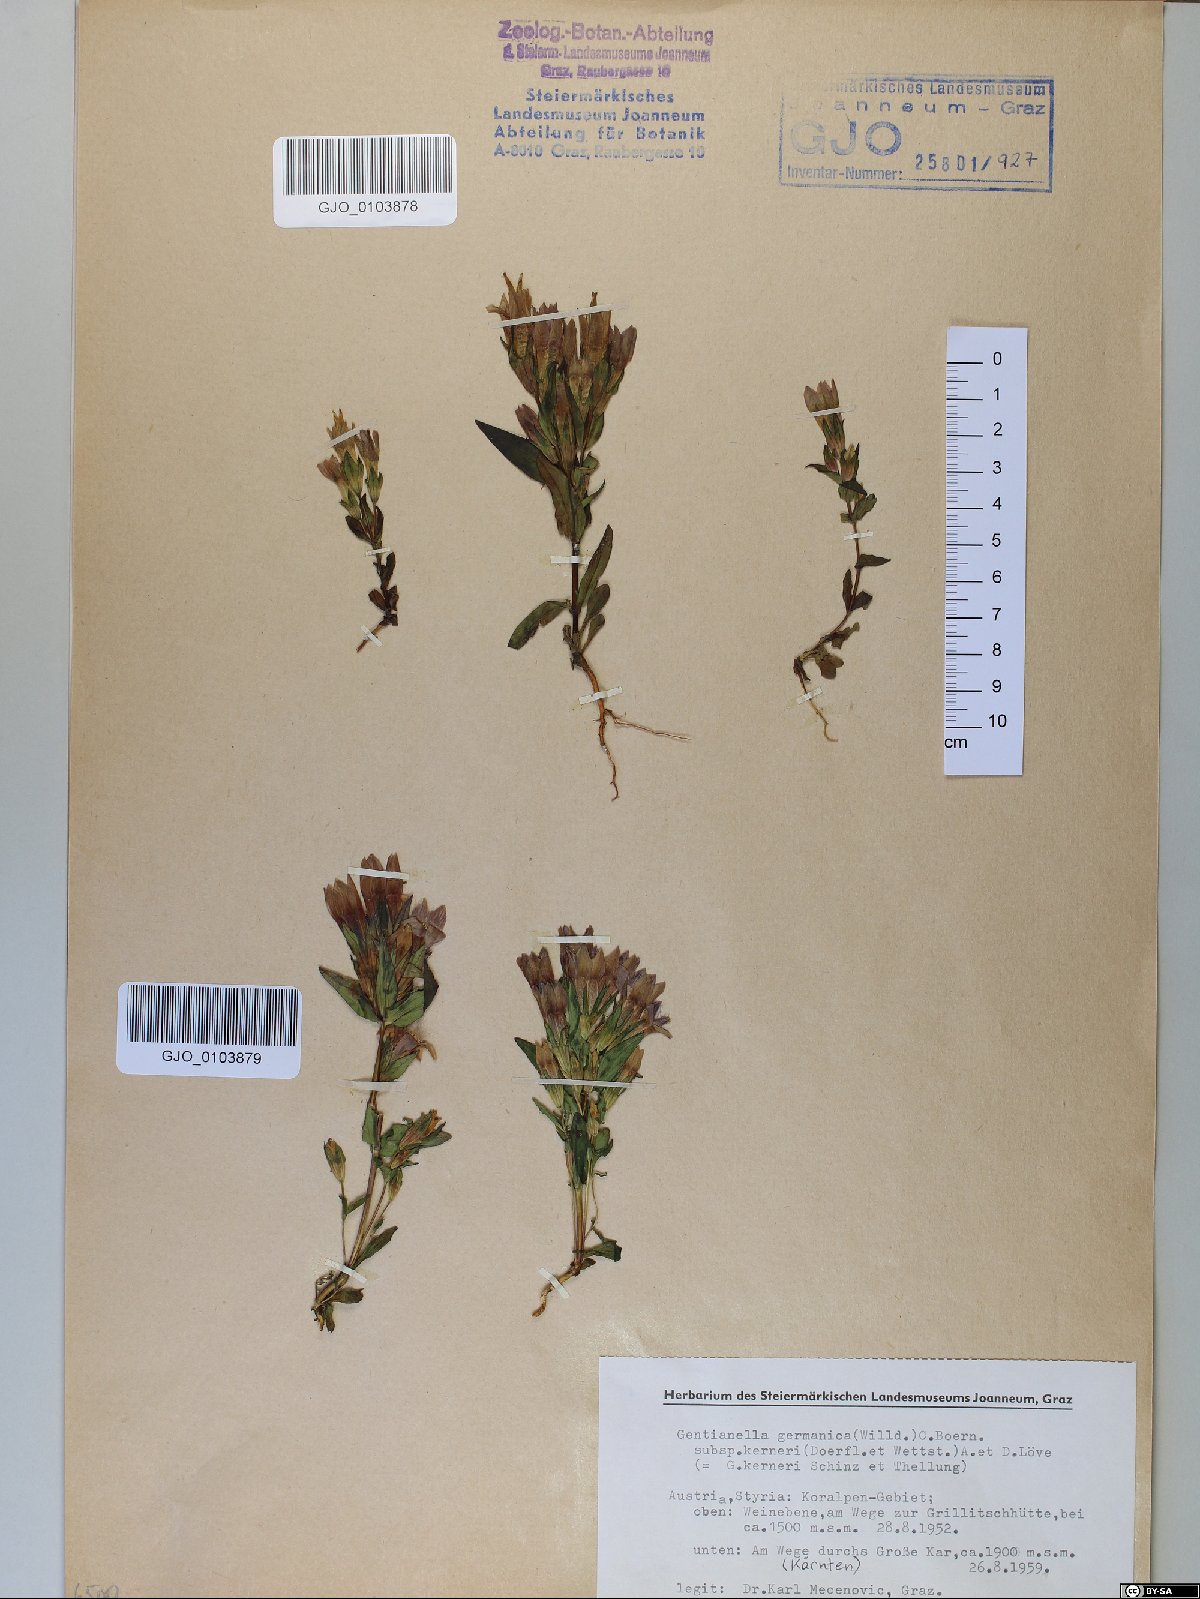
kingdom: Plantae
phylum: Tracheophyta
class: Magnoliopsida
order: Gentianales
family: Gentianaceae
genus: Gentianella
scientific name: Gentianella rhaetica
